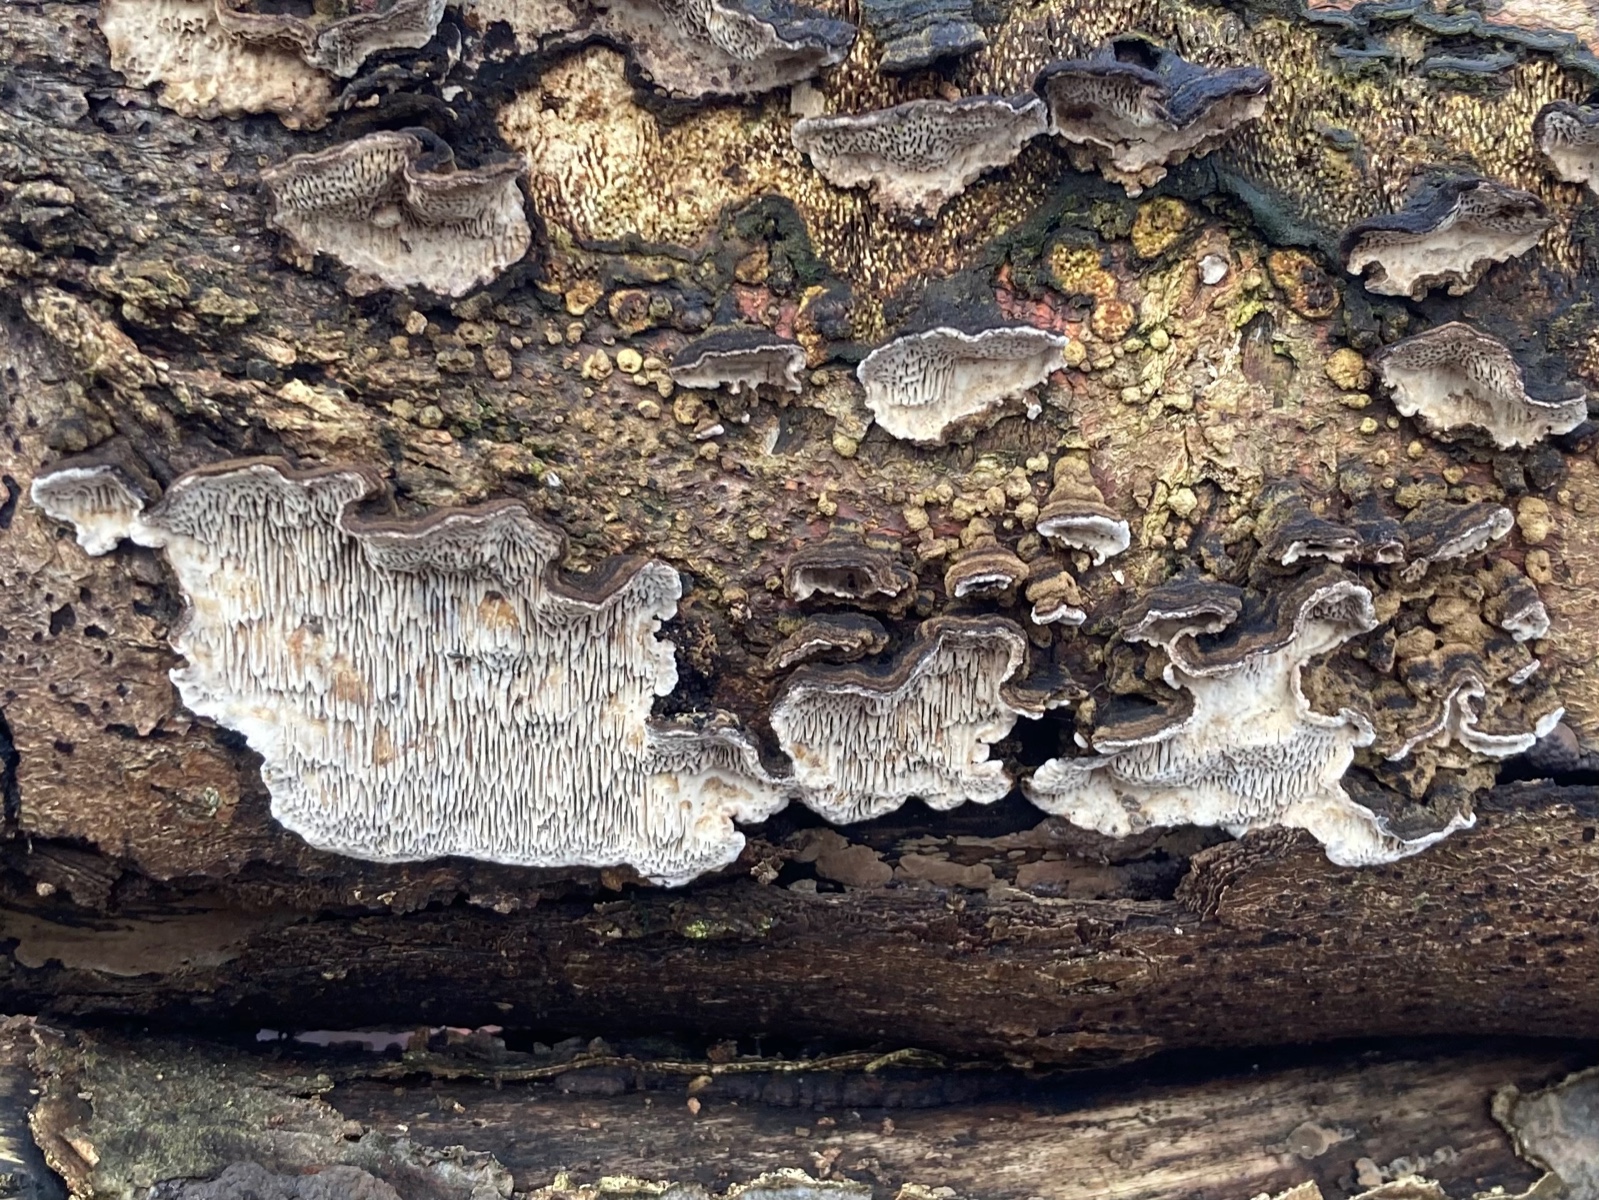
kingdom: Fungi
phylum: Basidiomycota
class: Agaricomycetes
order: Polyporales
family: Polyporaceae
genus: Podofomes
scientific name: Podofomes mollis
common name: blød begporesvamp
